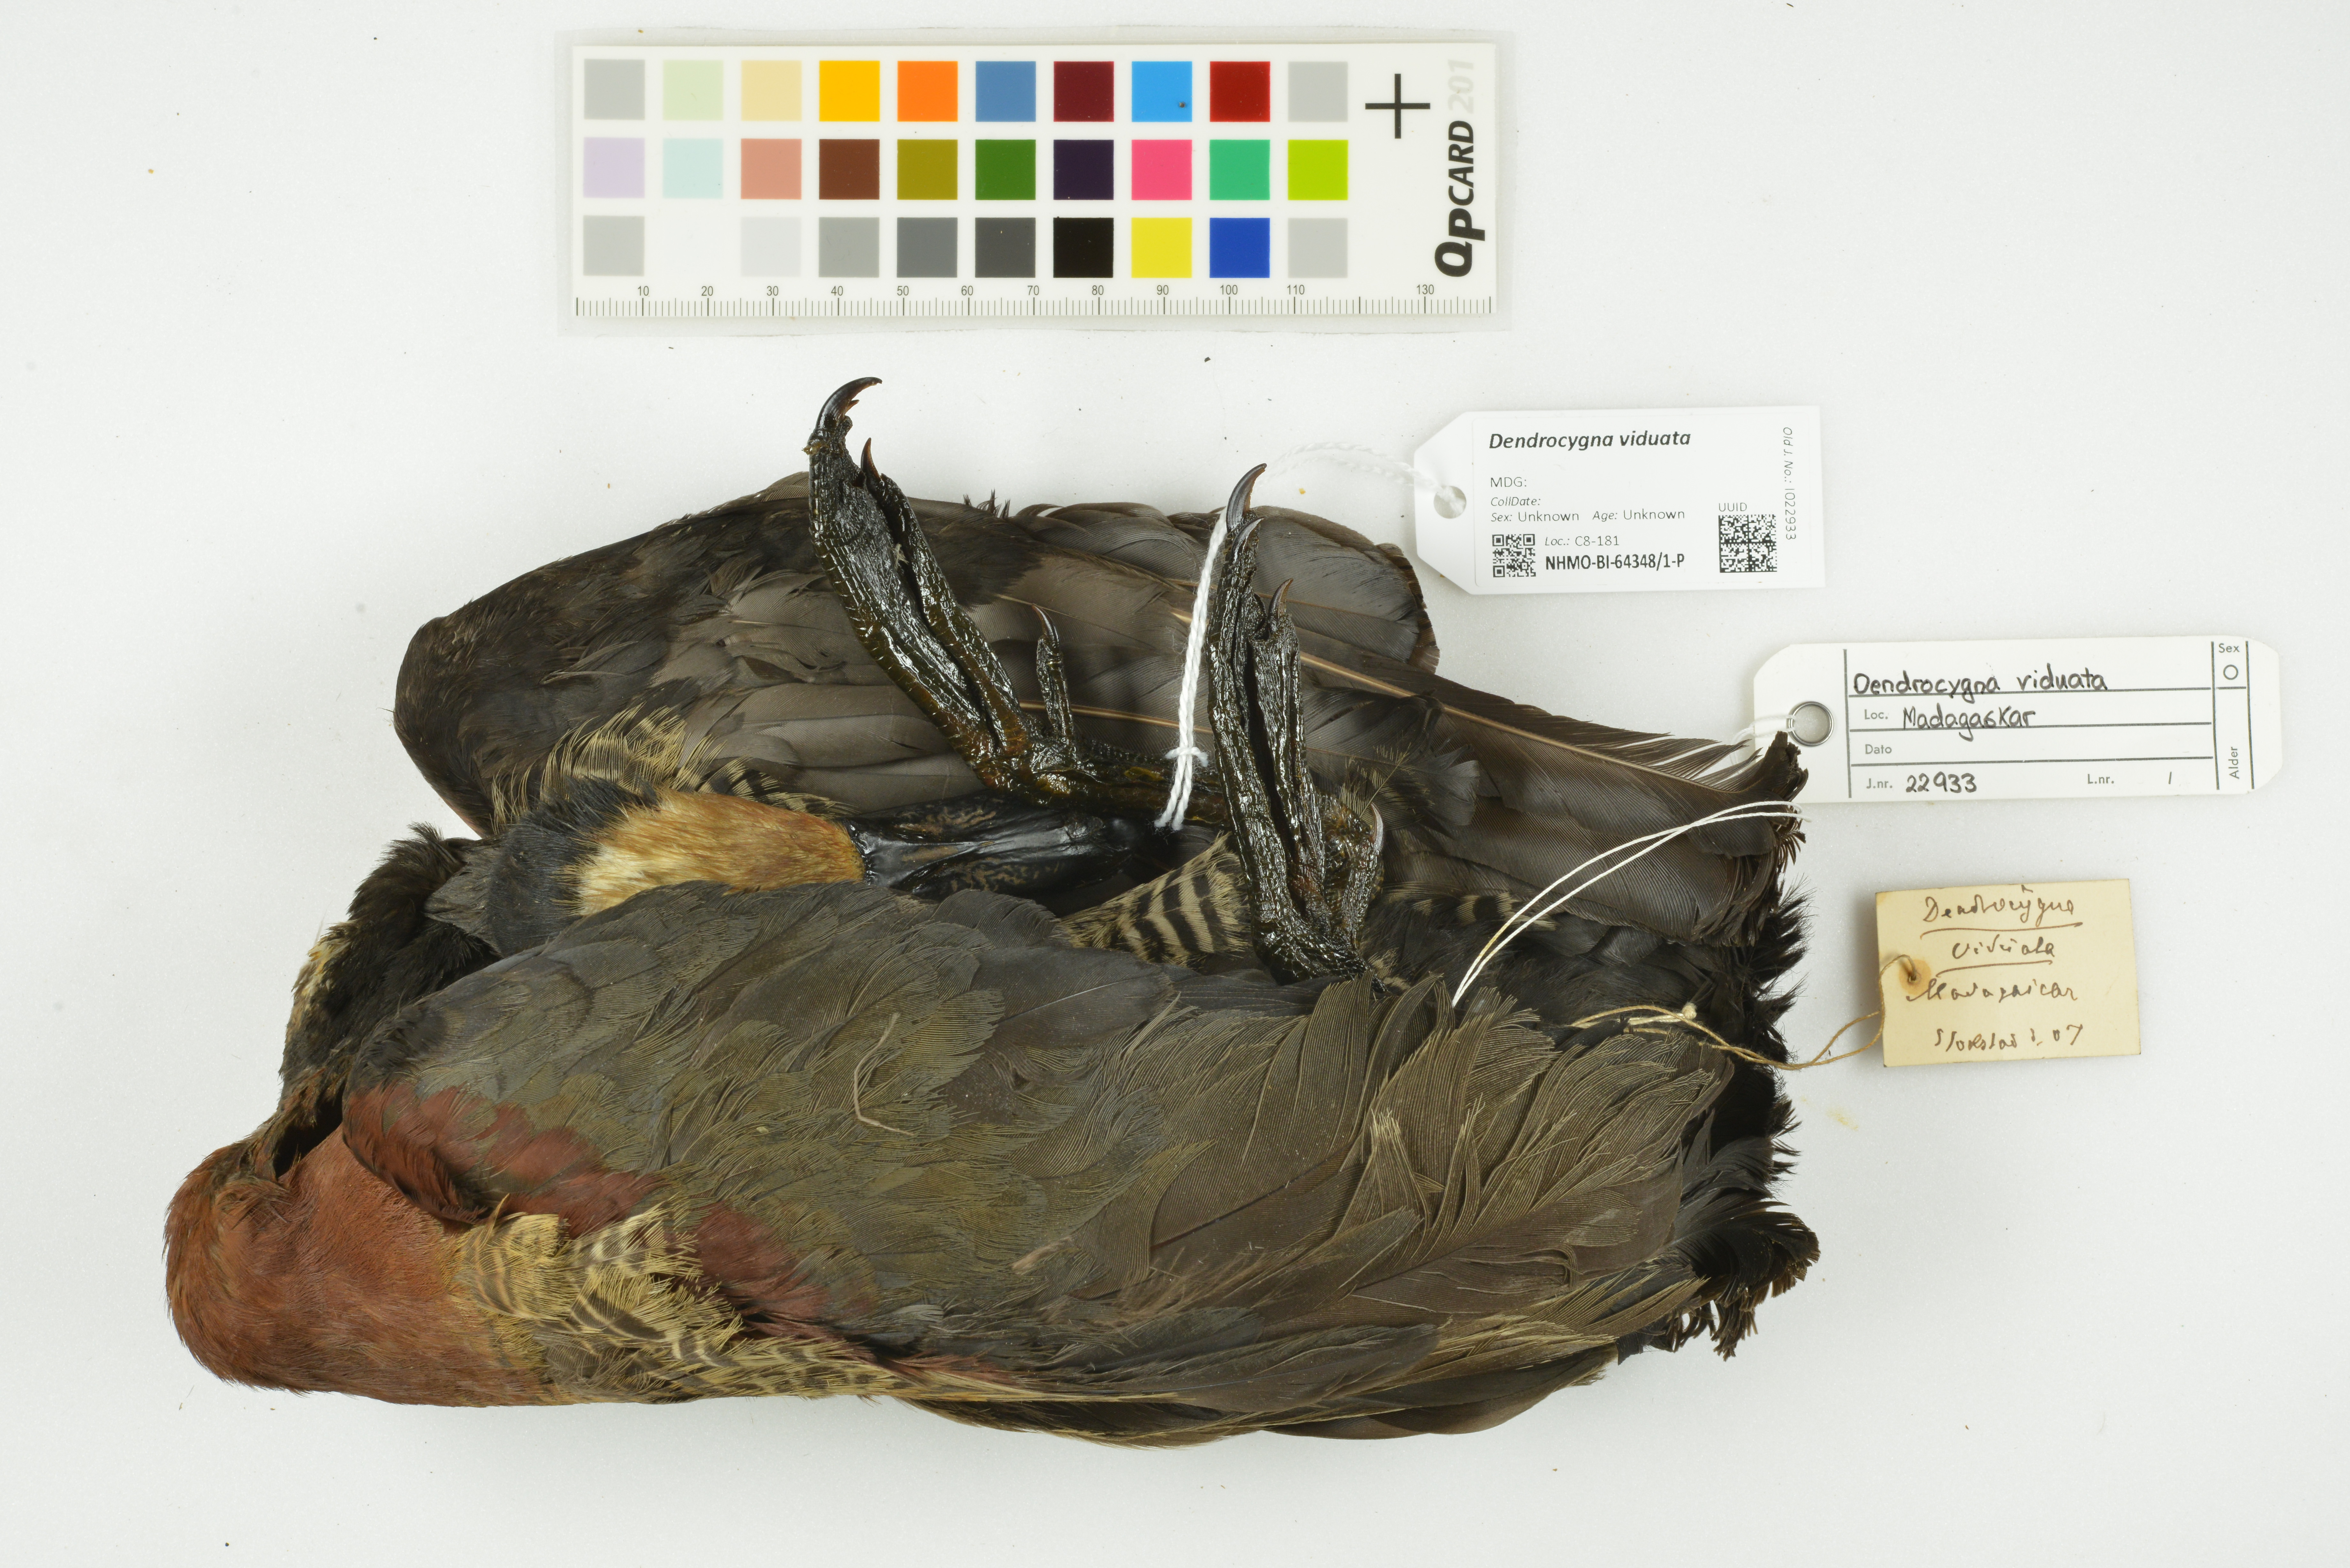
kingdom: Animalia
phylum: Chordata
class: Aves
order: Anseriformes
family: Anatidae
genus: Dendrocygna
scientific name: Dendrocygna viduata
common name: White-faced whistling duck
